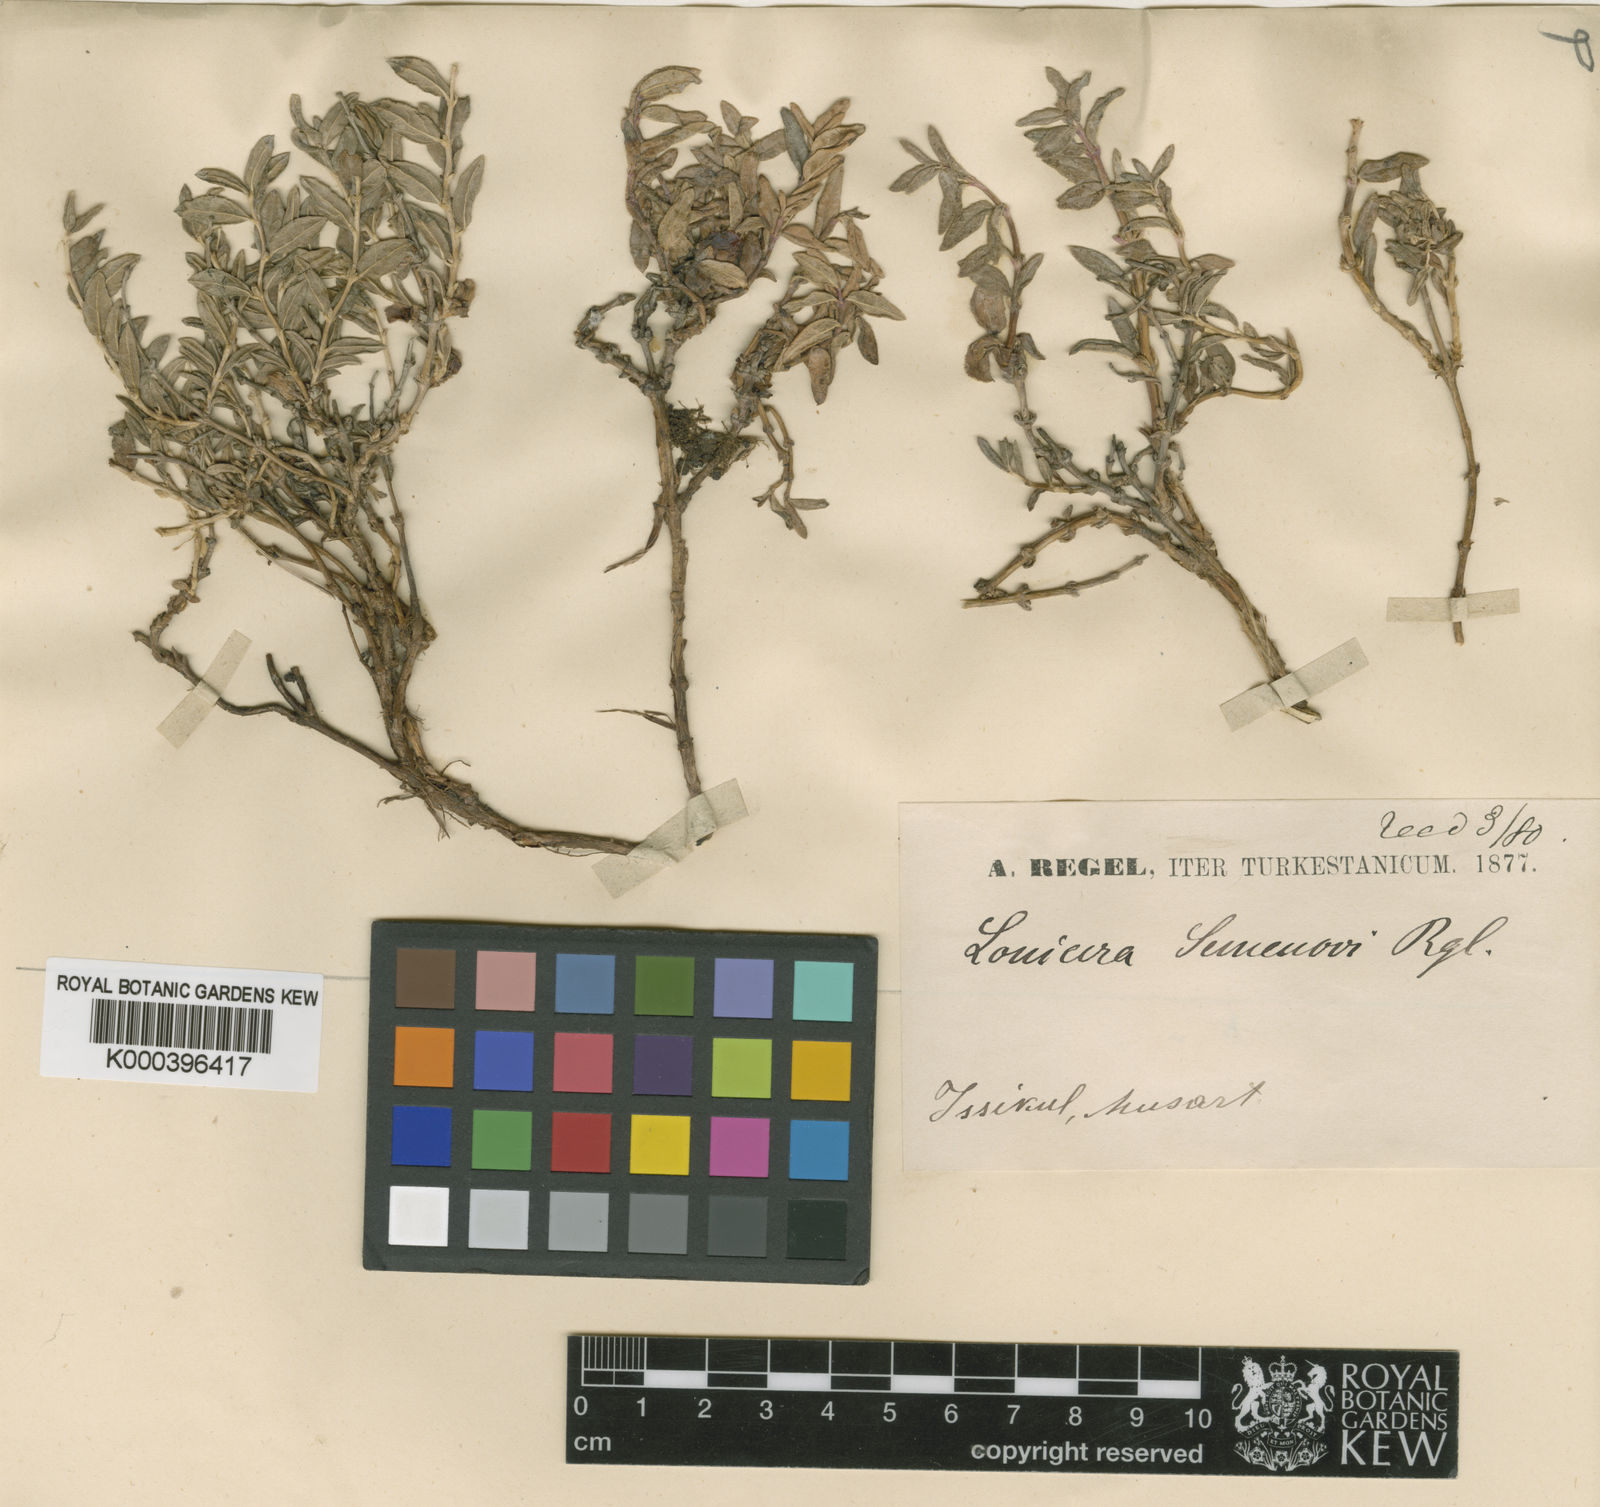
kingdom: Plantae
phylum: Tracheophyta
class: Magnoliopsida
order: Dipsacales
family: Caprifoliaceae
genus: Lonicera
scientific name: Lonicera semenovii
